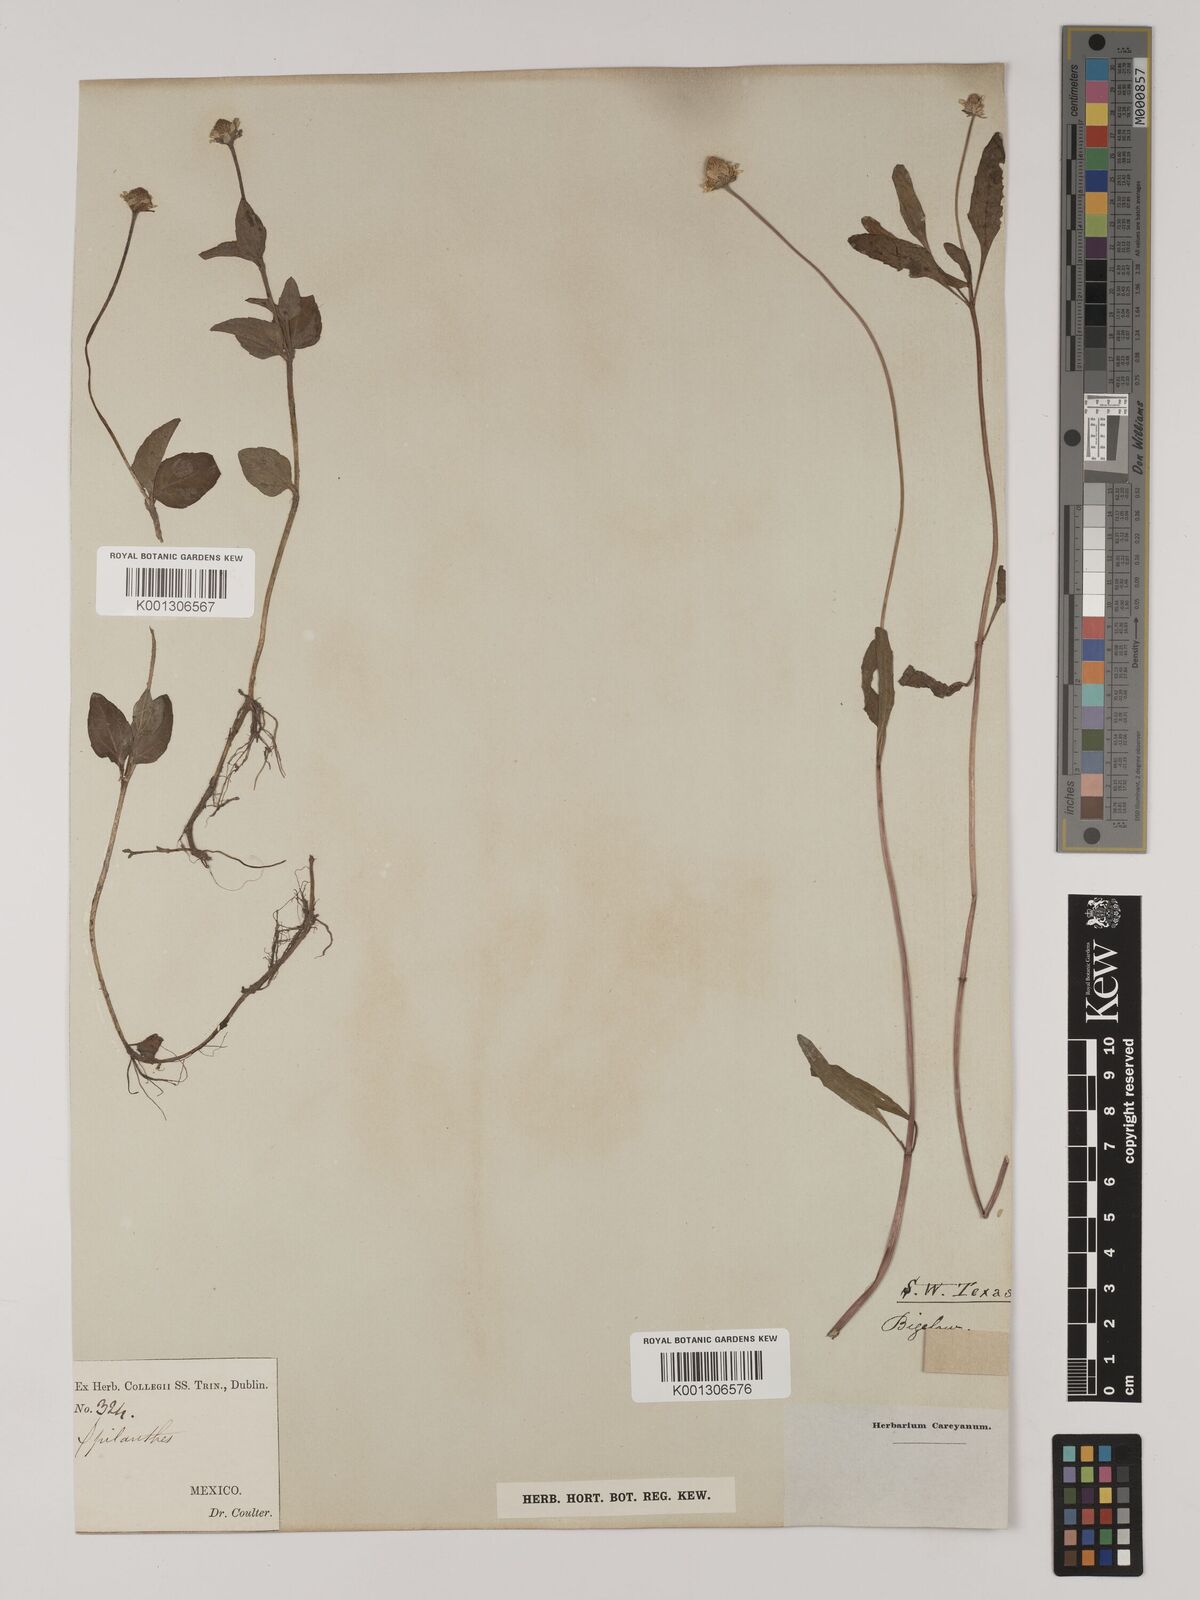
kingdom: Plantae
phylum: Tracheophyta
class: Magnoliopsida
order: Asterales
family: Asteraceae
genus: Heliopsis
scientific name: Heliopsis buphthalmoides
